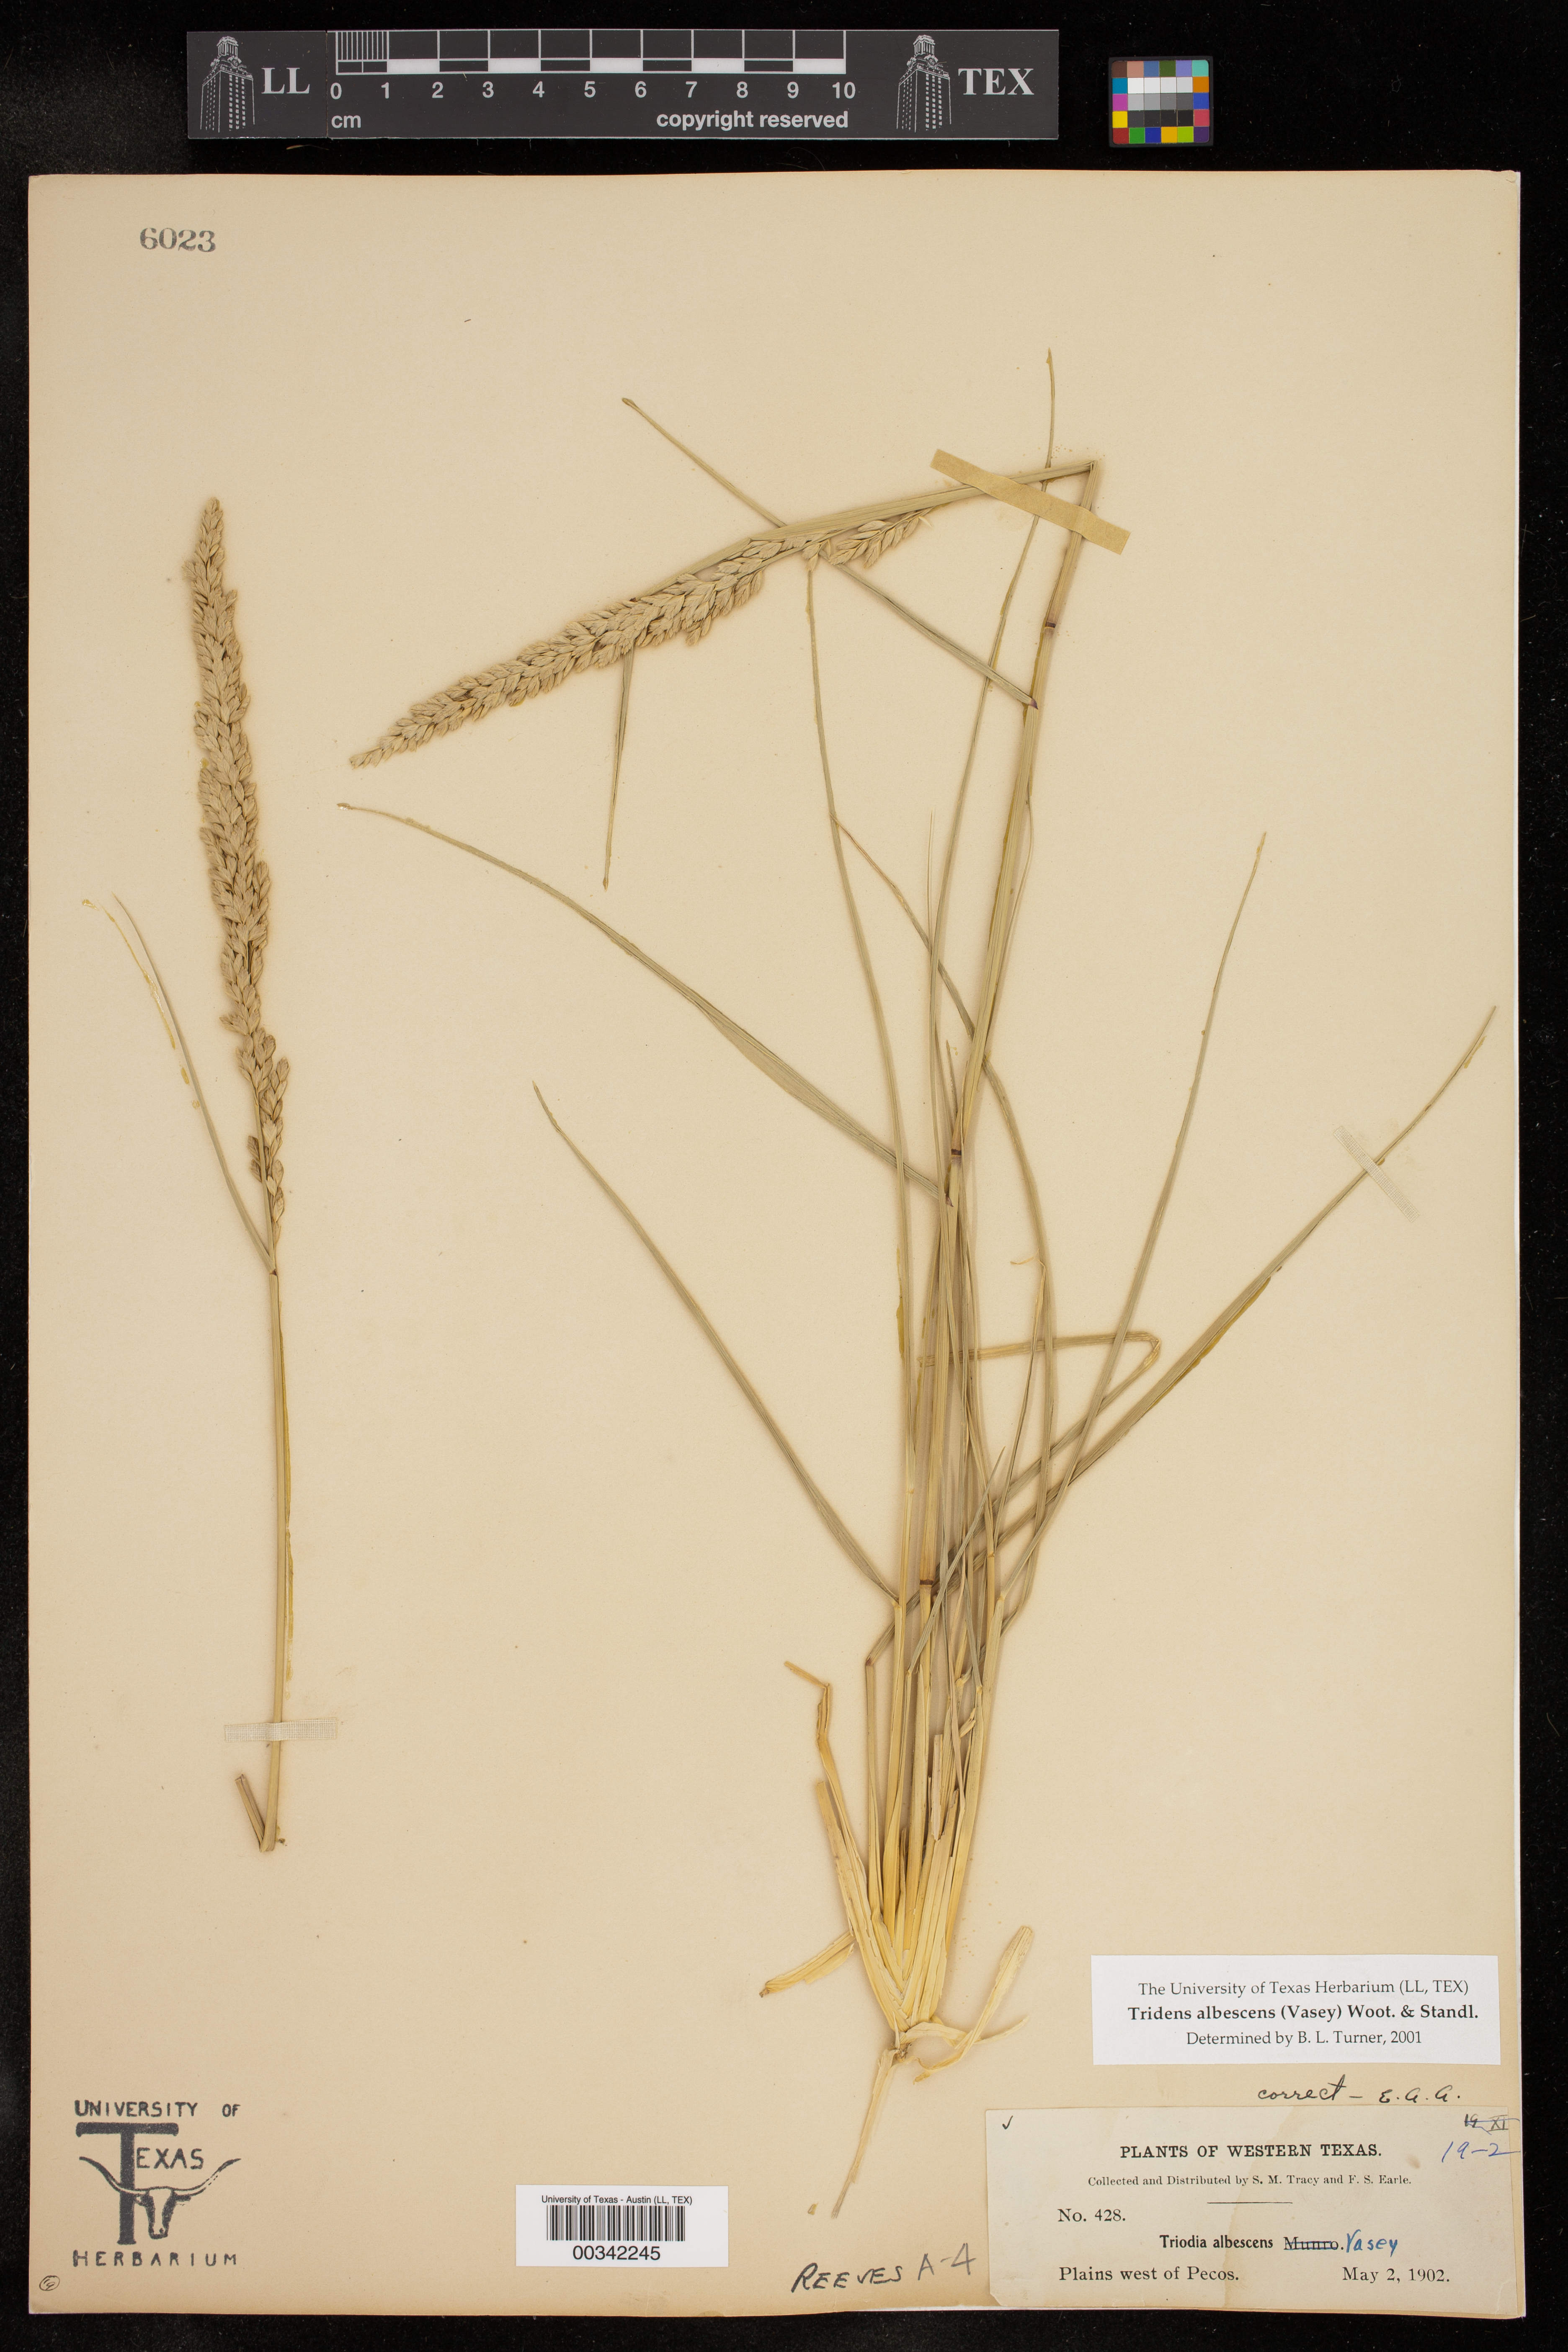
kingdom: Plantae
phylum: Tracheophyta
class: Liliopsida
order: Poales
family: Poaceae
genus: Tridens
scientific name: Tridens albescens
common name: White tridens
